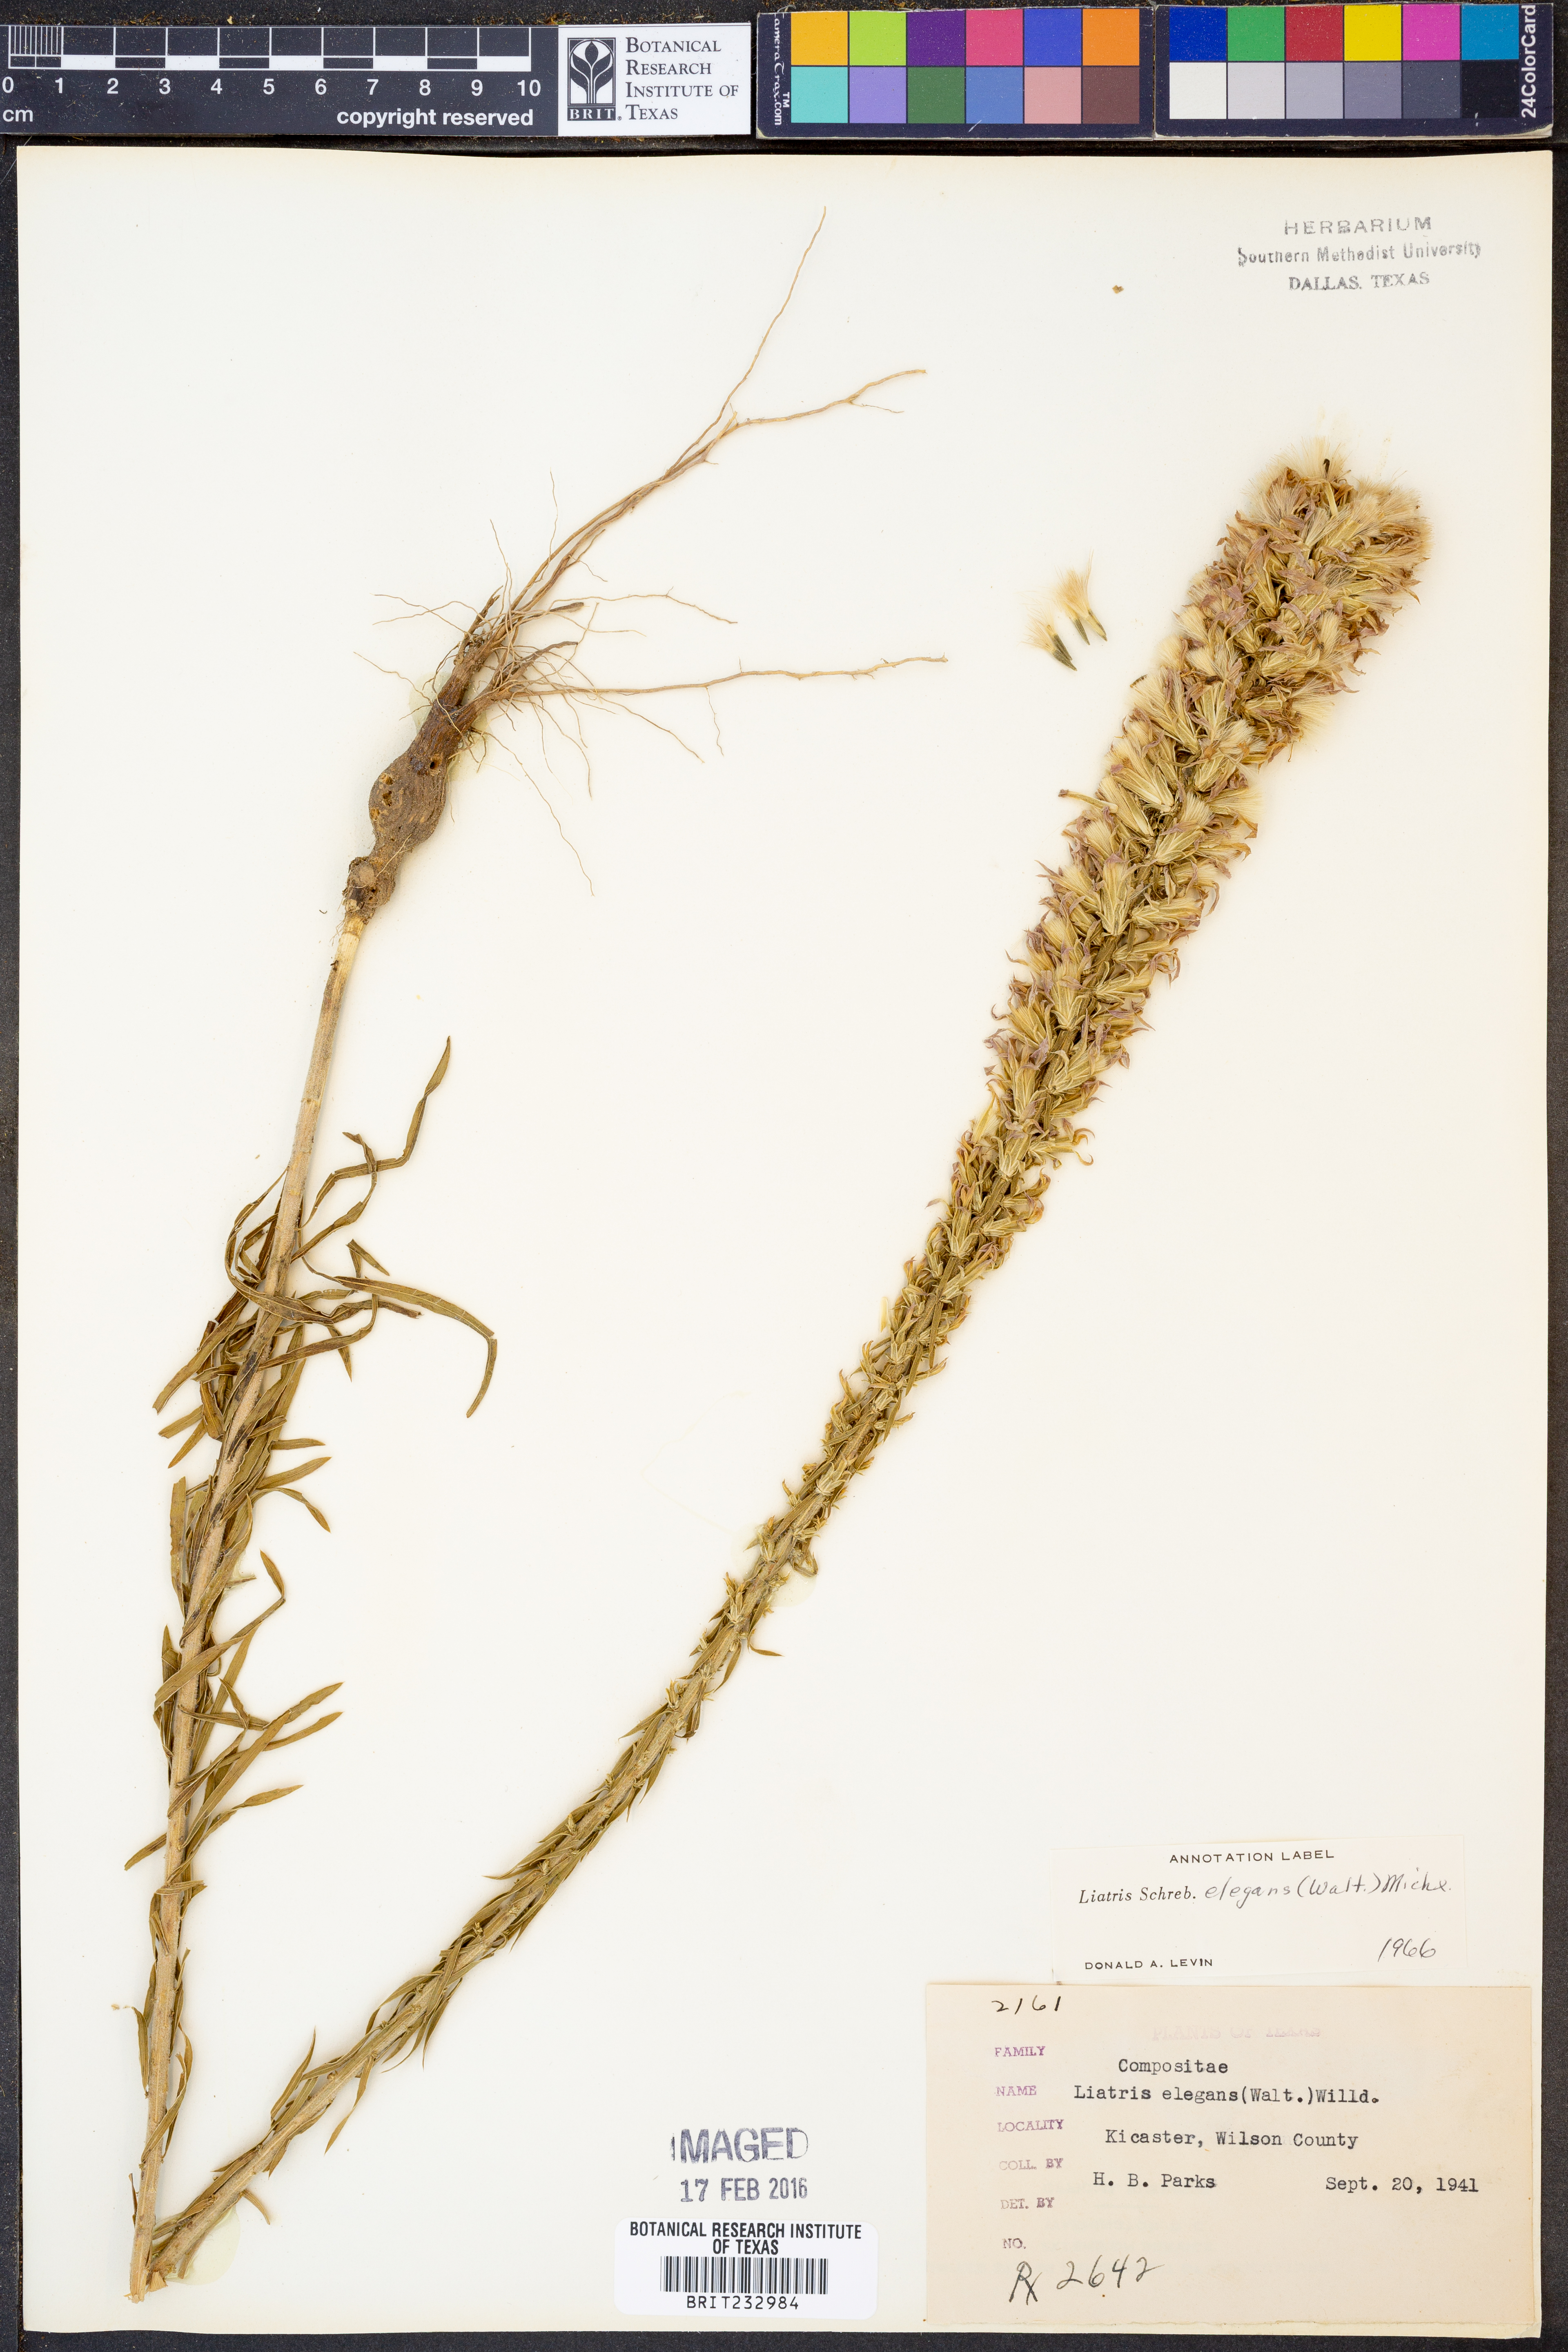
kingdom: Plantae
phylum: Tracheophyta
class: Magnoliopsida
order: Asterales
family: Asteraceae
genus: Liatris
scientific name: Liatris elegans
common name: Pinkscale gayfeather
